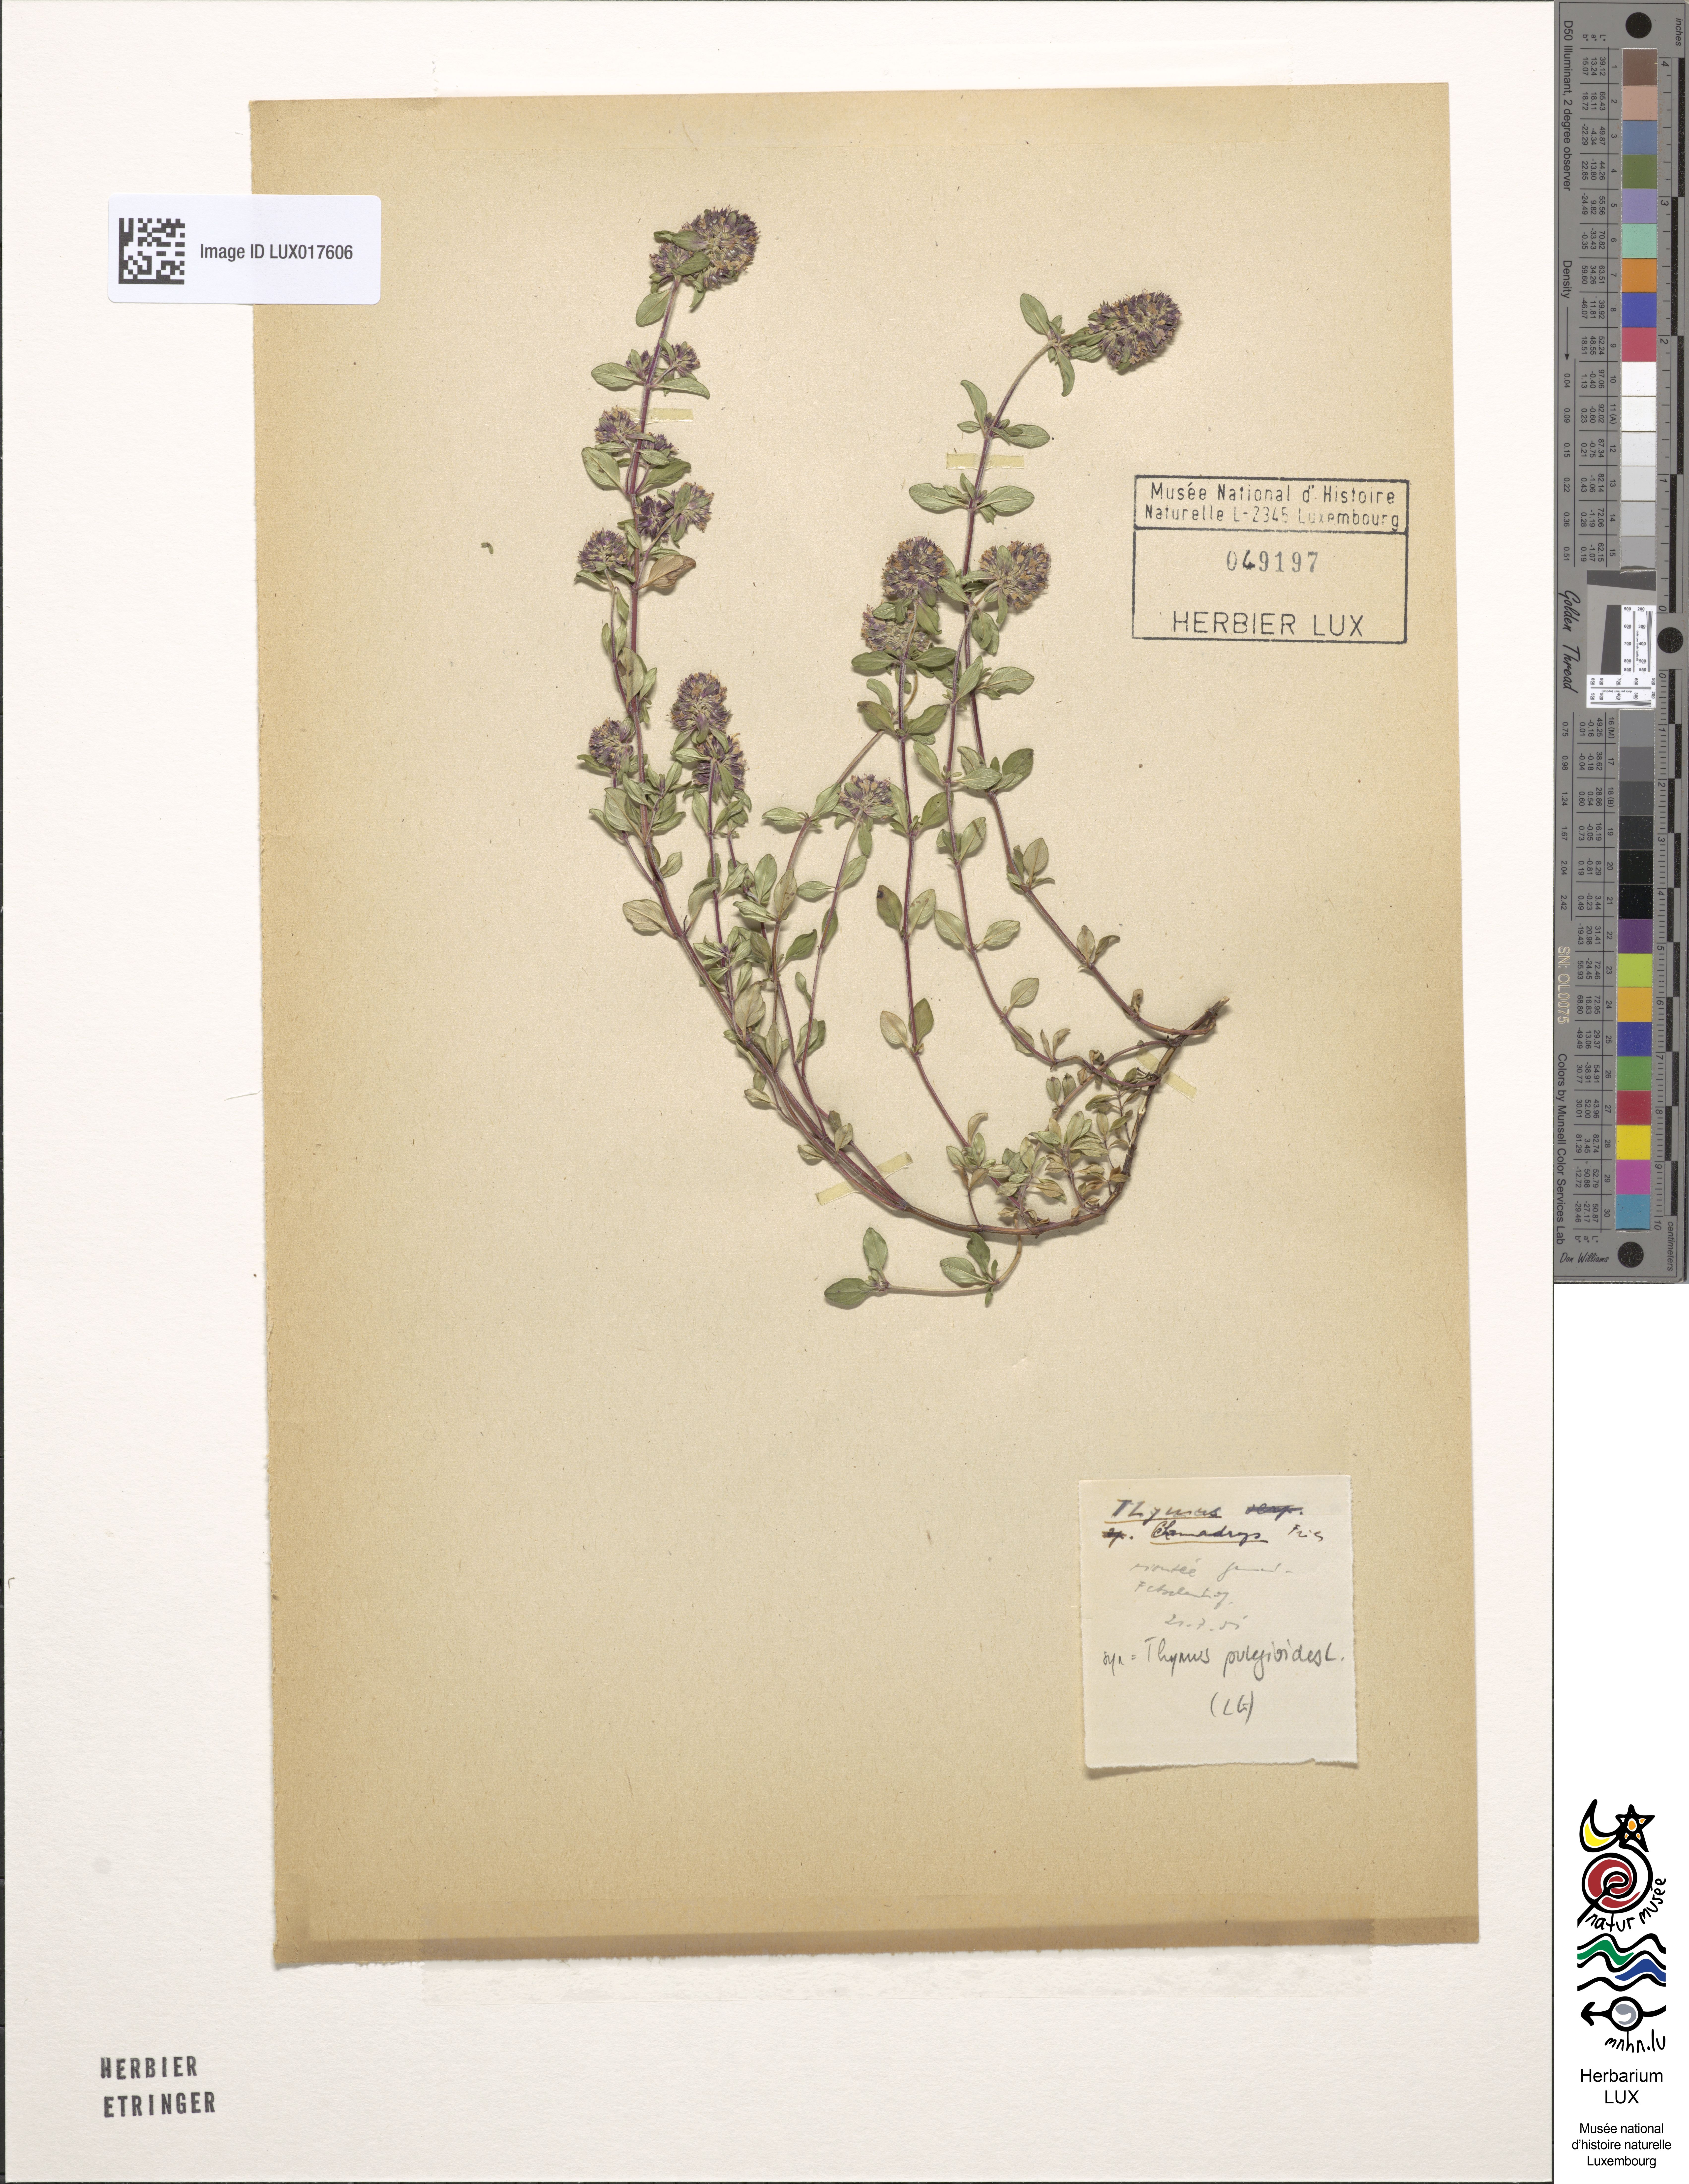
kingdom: Plantae
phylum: Tracheophyta
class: Magnoliopsida
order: Lamiales
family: Lamiaceae
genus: Thymus
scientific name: Thymus pulegioides
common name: Large thyme
